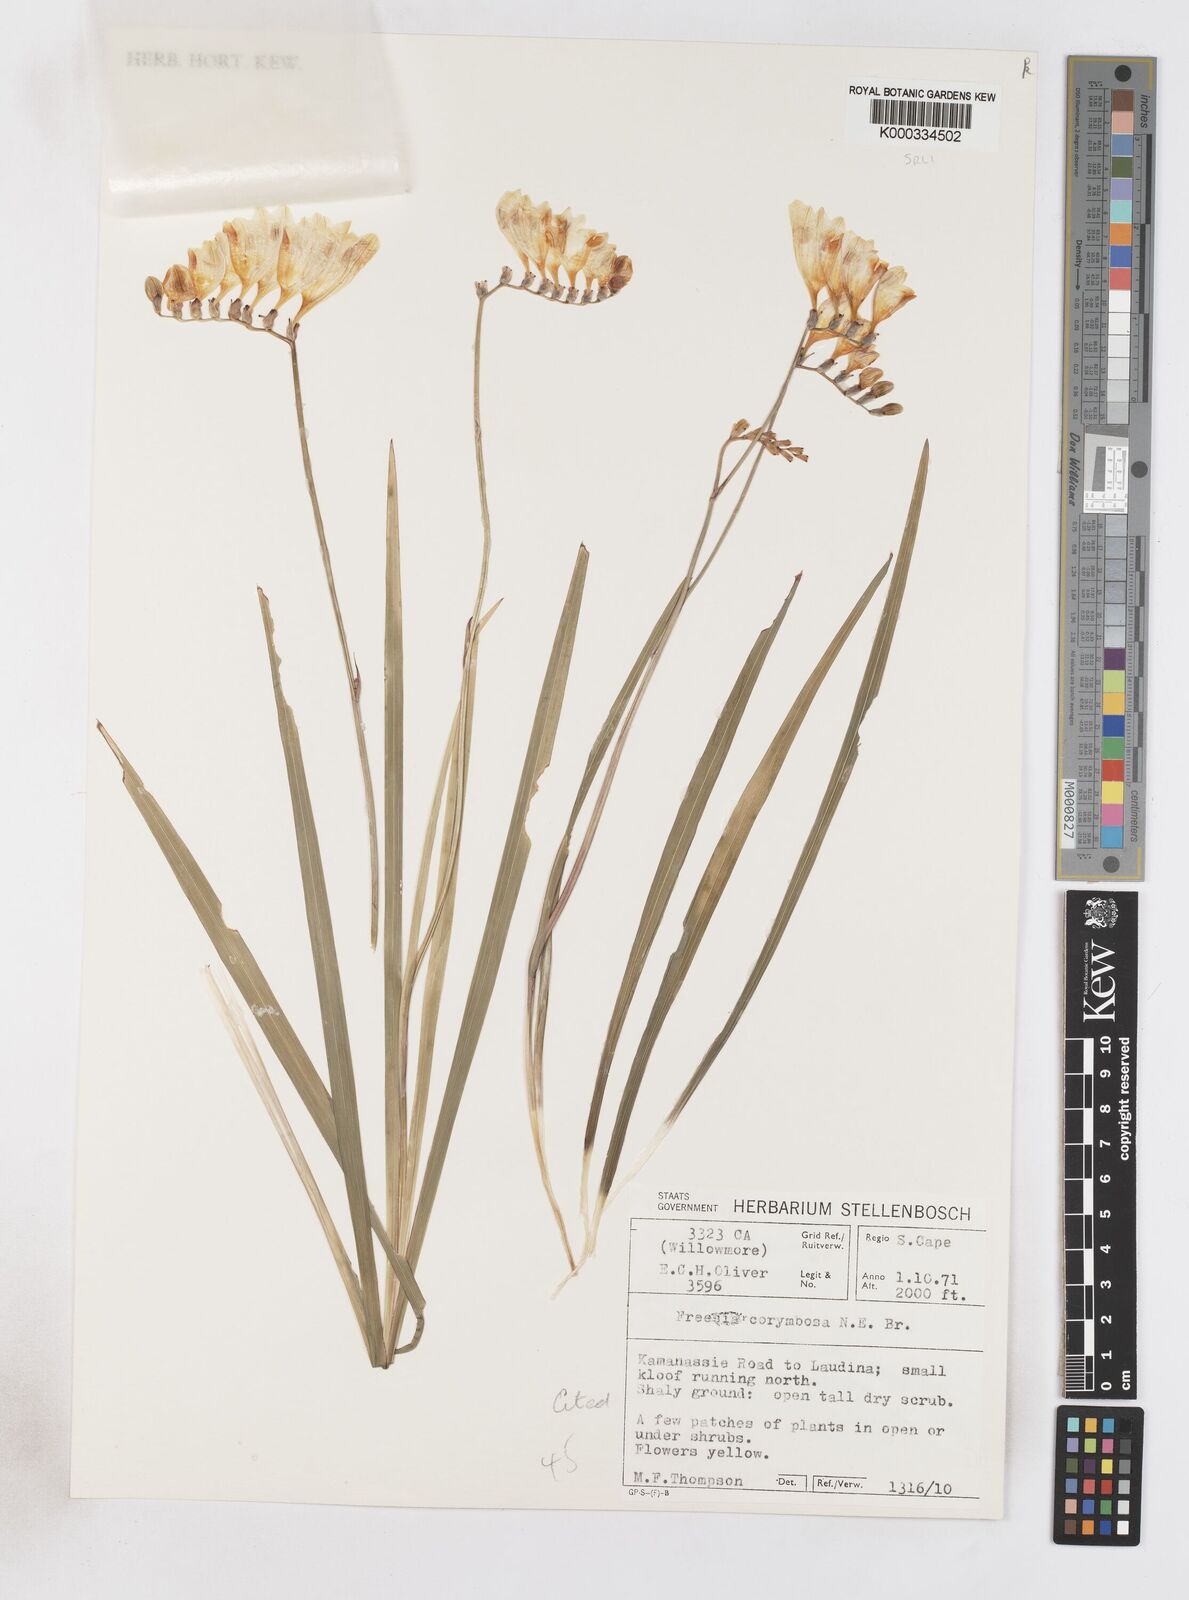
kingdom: Plantae
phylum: Tracheophyta
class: Liliopsida
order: Asparagales
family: Iridaceae
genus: Freesia
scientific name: Freesia corymbosa
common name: Common freesia
